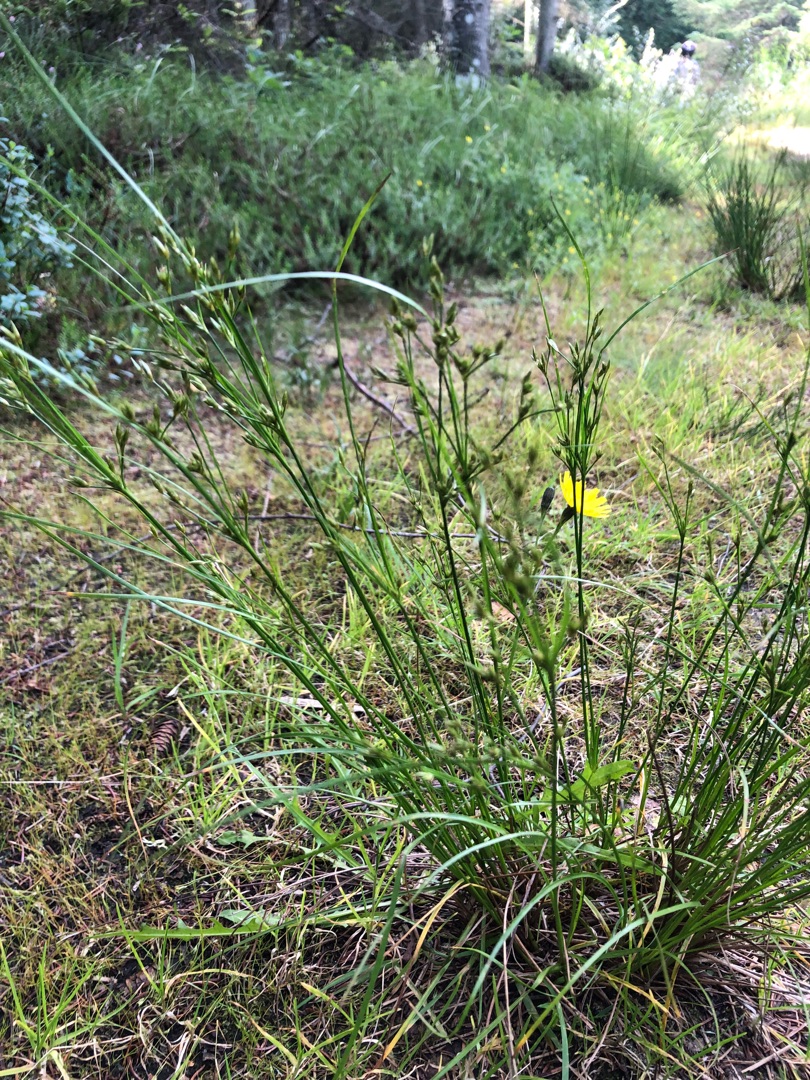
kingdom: Plantae
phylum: Tracheophyta
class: Liliopsida
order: Poales
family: Juncaceae
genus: Juncus
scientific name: Juncus tenuis
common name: Tue-siv
